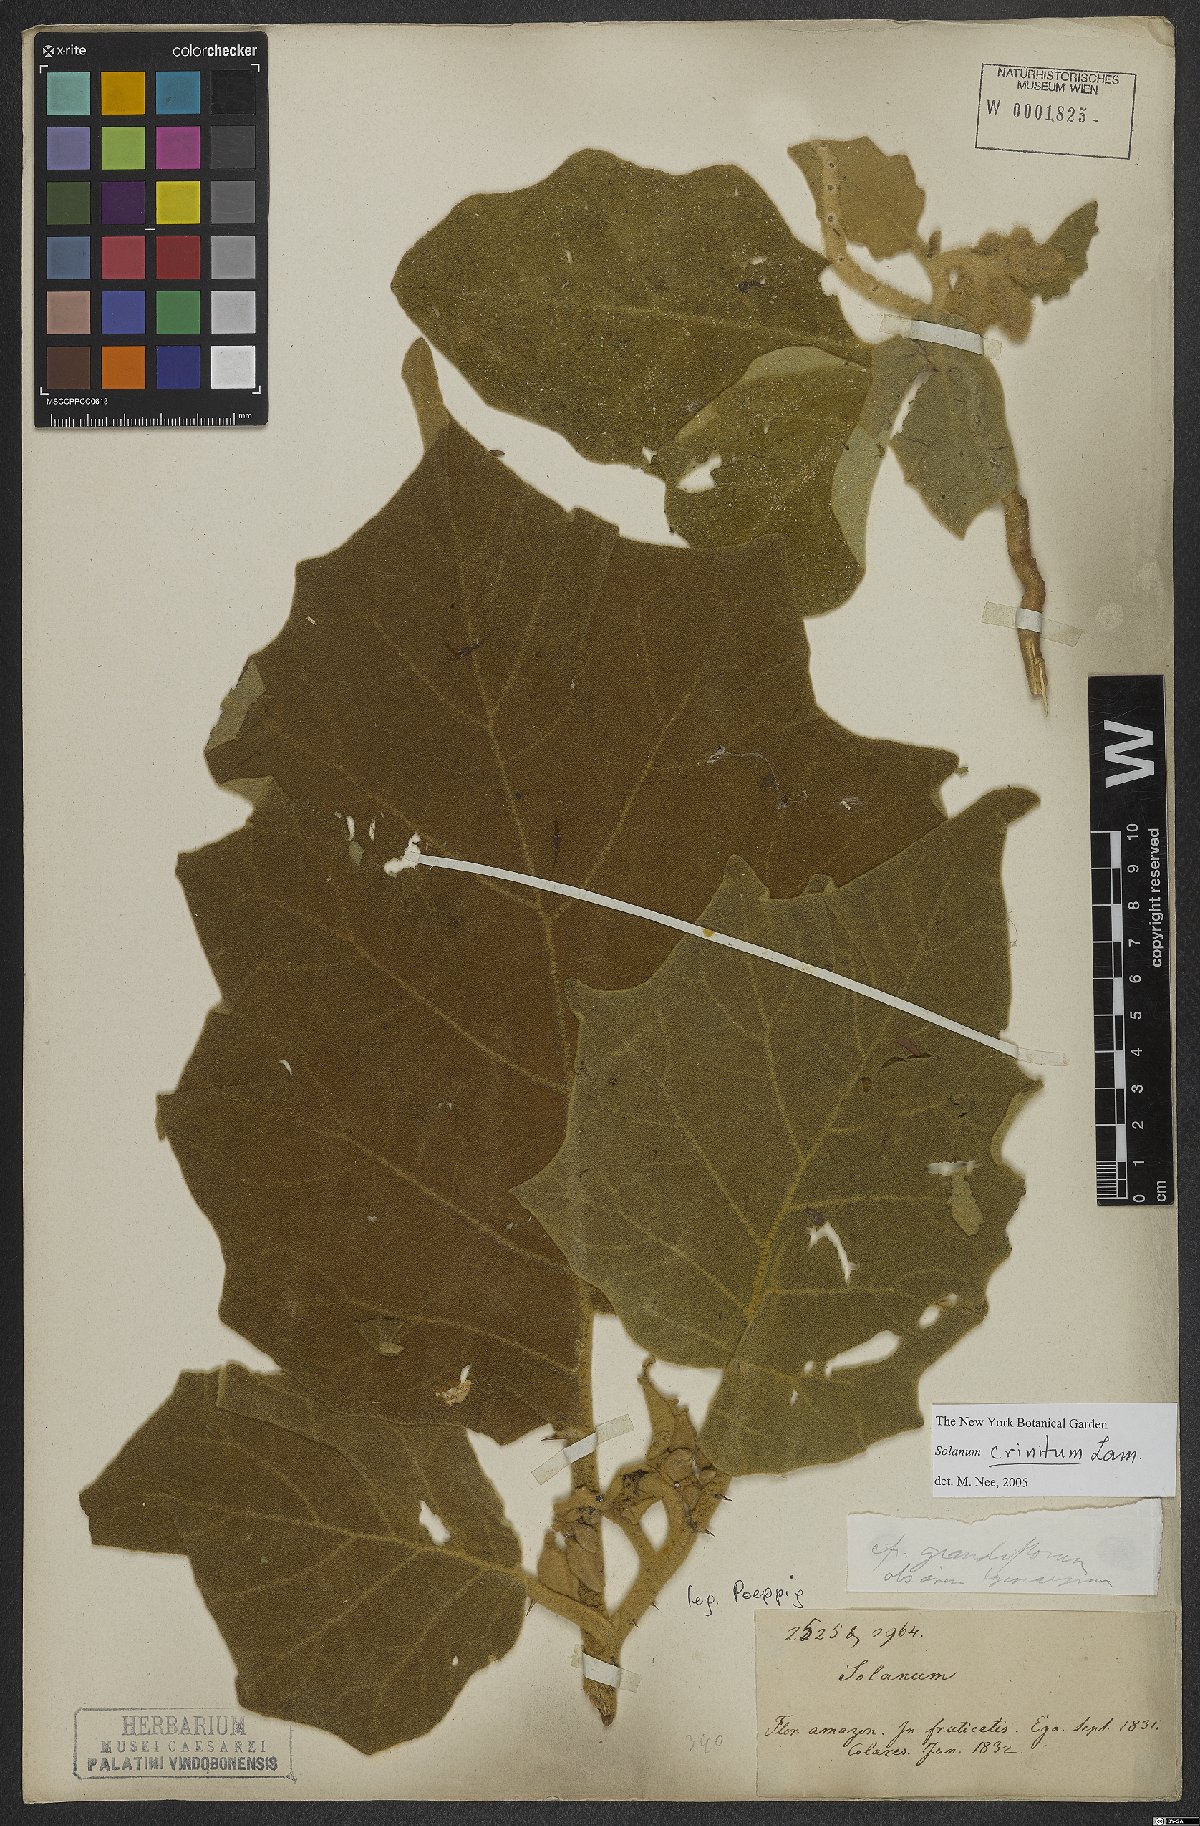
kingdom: Plantae
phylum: Tracheophyta
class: Magnoliopsida
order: Solanales
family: Solanaceae
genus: Solanum
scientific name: Solanum crinitum
